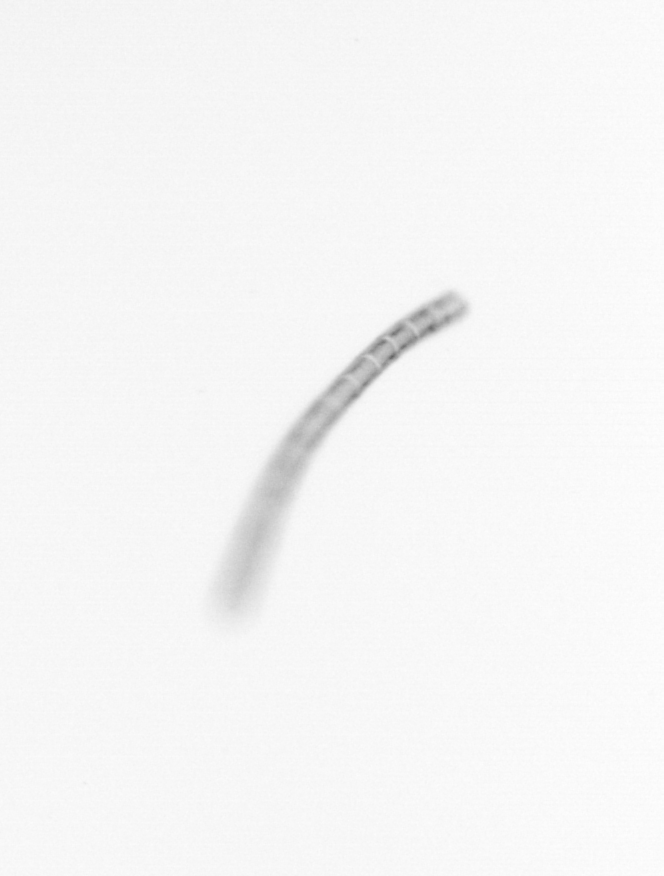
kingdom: Chromista
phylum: Ochrophyta
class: Bacillariophyceae
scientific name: Bacillariophyceae
